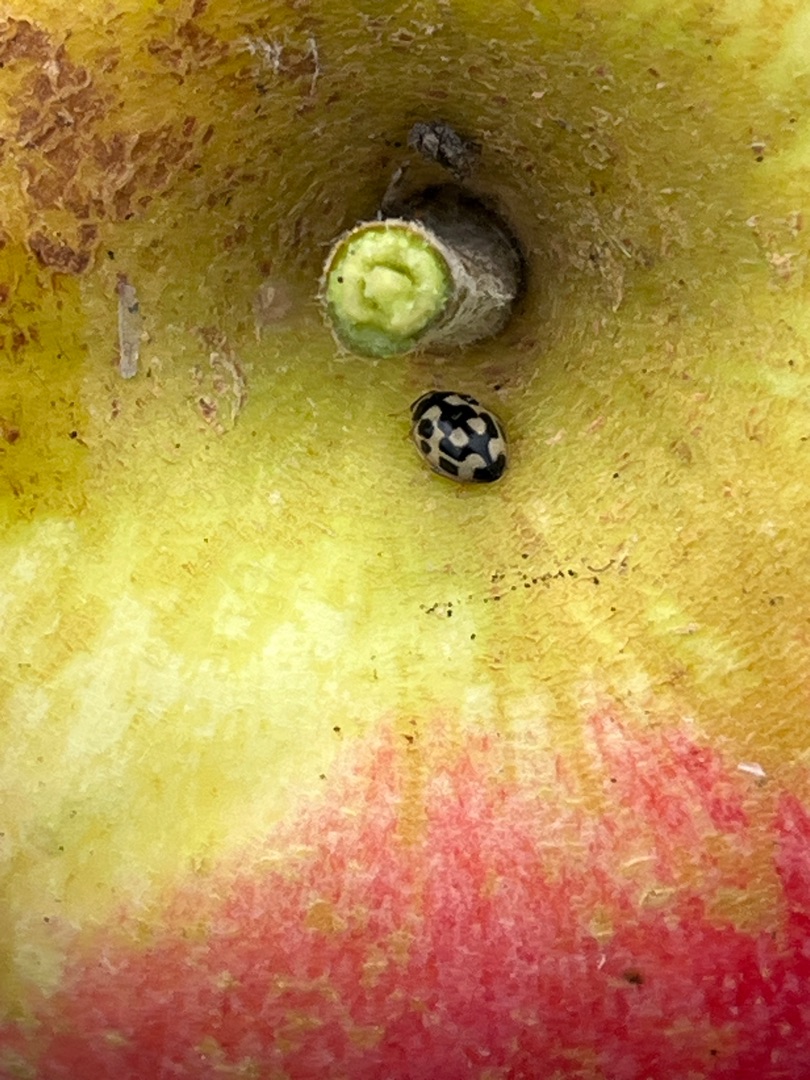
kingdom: Animalia
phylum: Arthropoda
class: Insecta
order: Coleoptera
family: Coccinellidae
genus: Propylaea
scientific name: Propylaea quatuordecimpunctata
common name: Skakbræt
